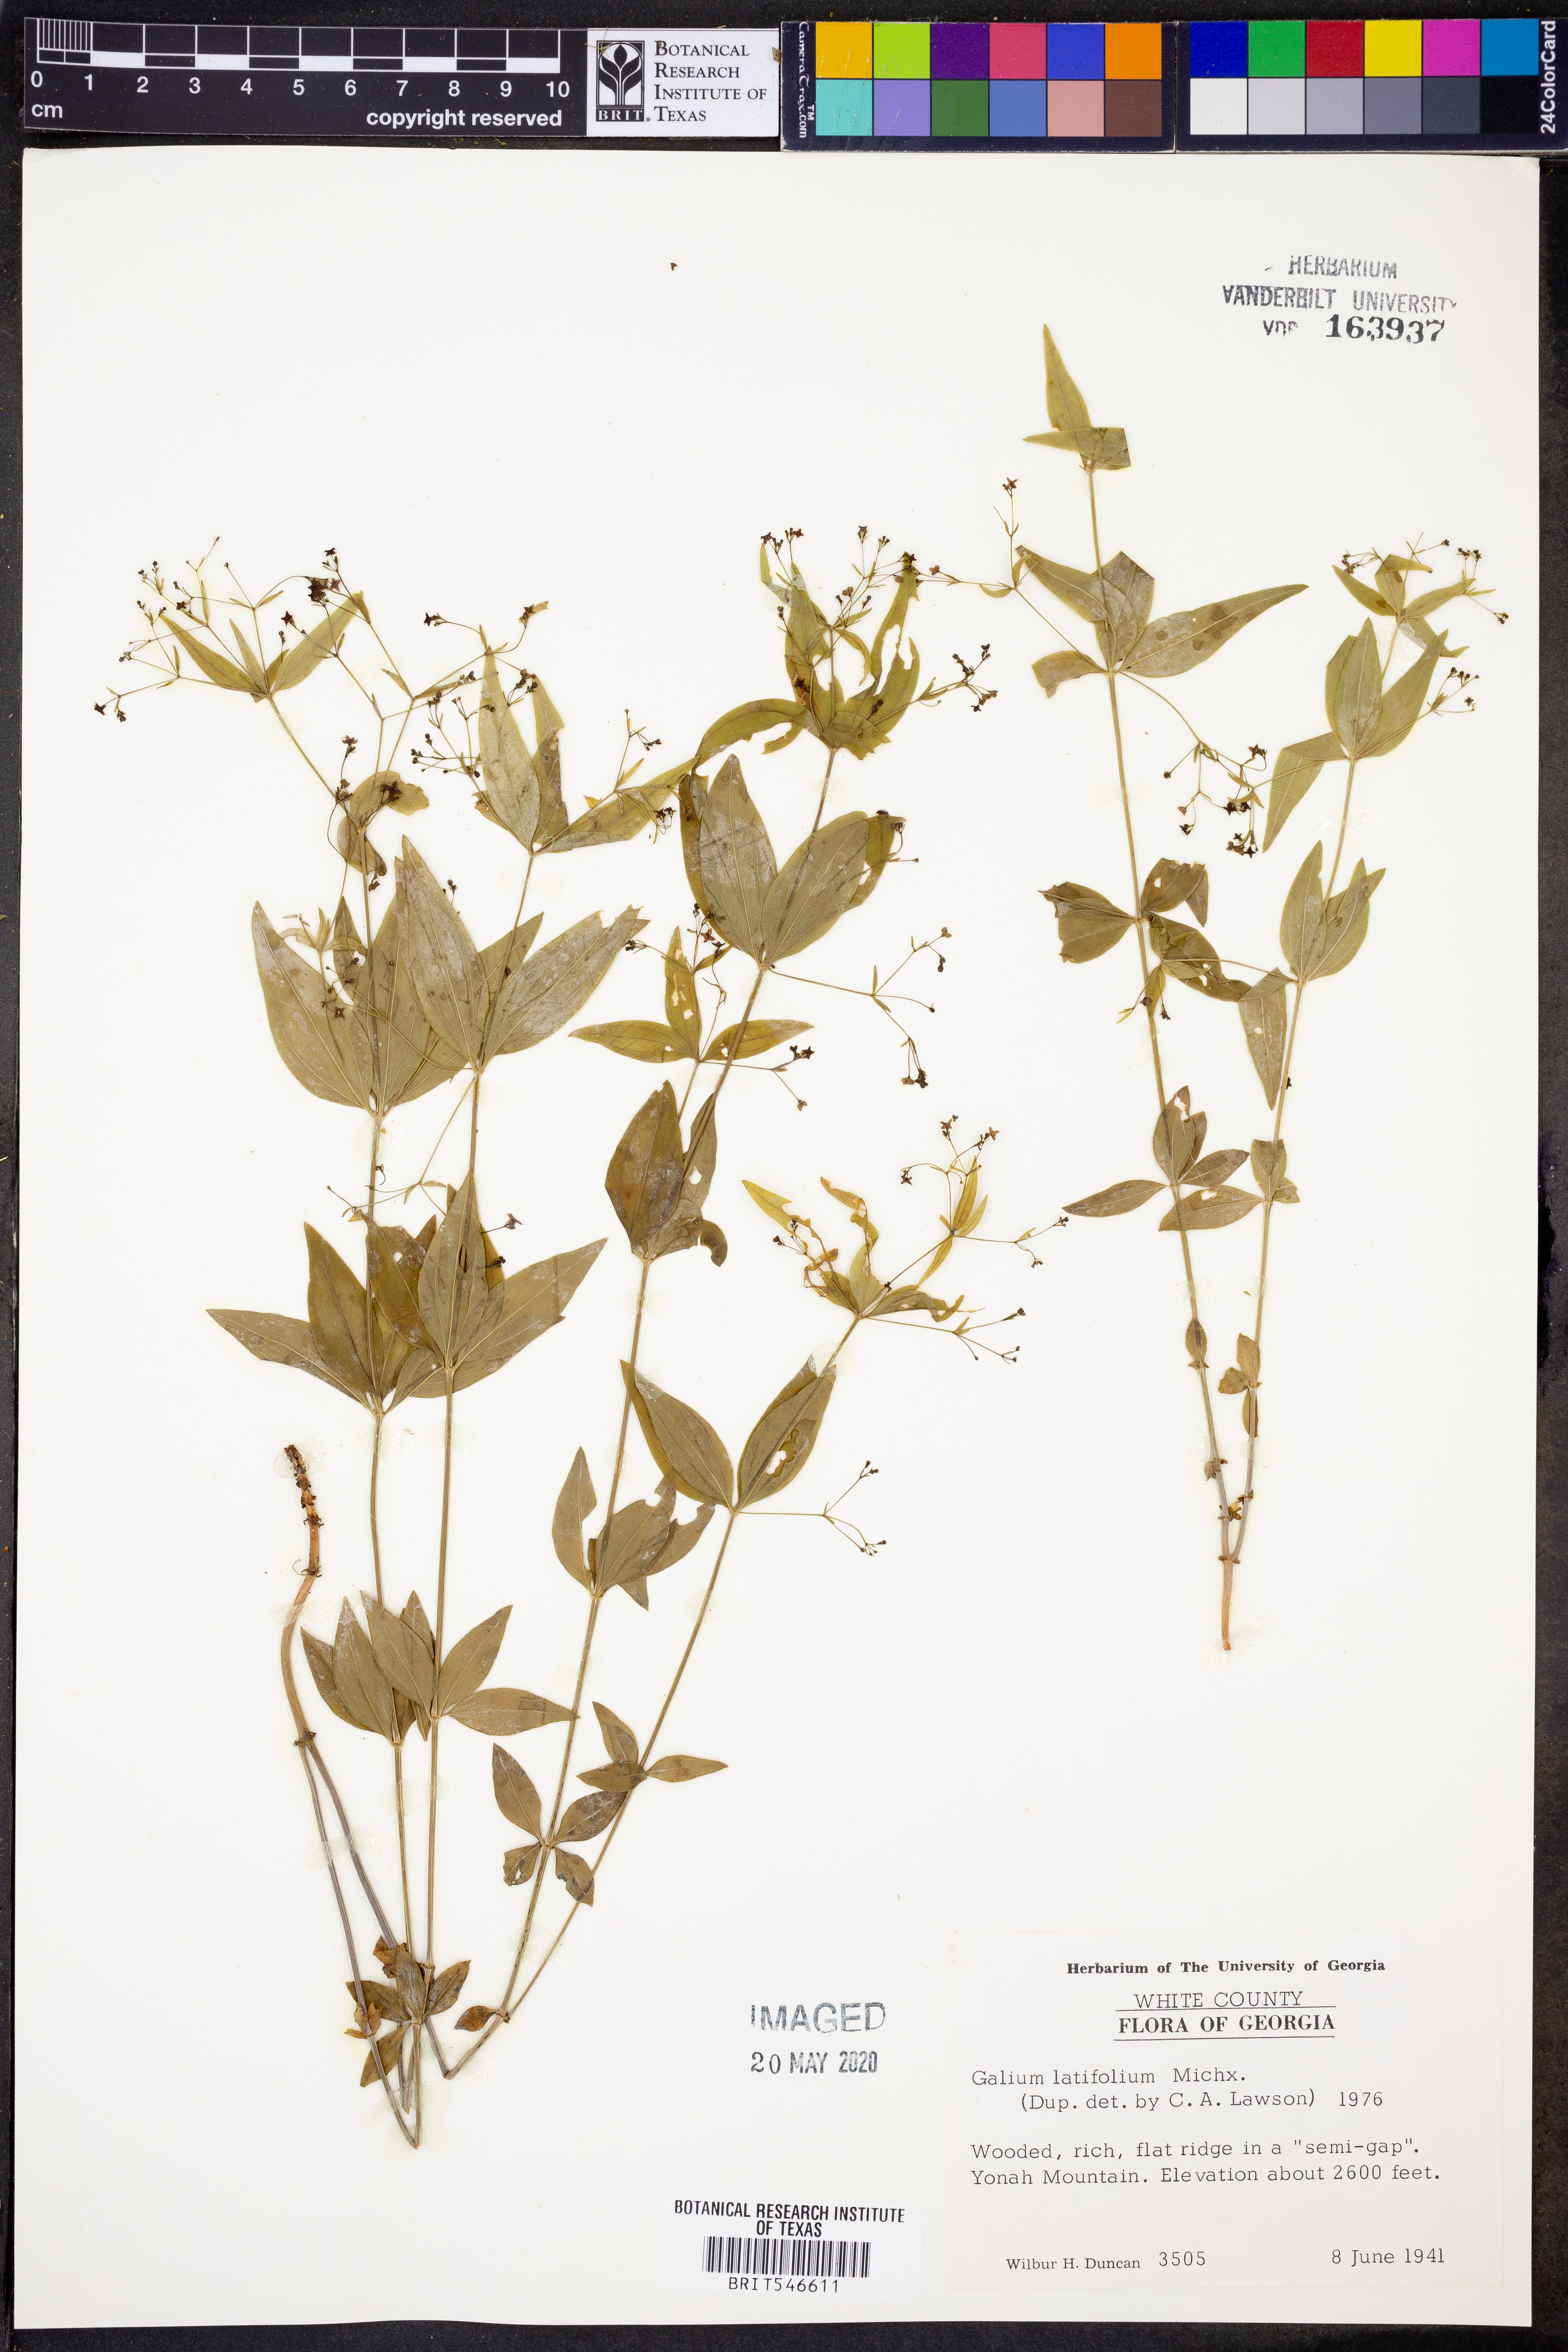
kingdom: Plantae
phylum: Tracheophyta
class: Magnoliopsida
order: Gentianales
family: Rubiaceae
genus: Galium
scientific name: Galium latifolium
